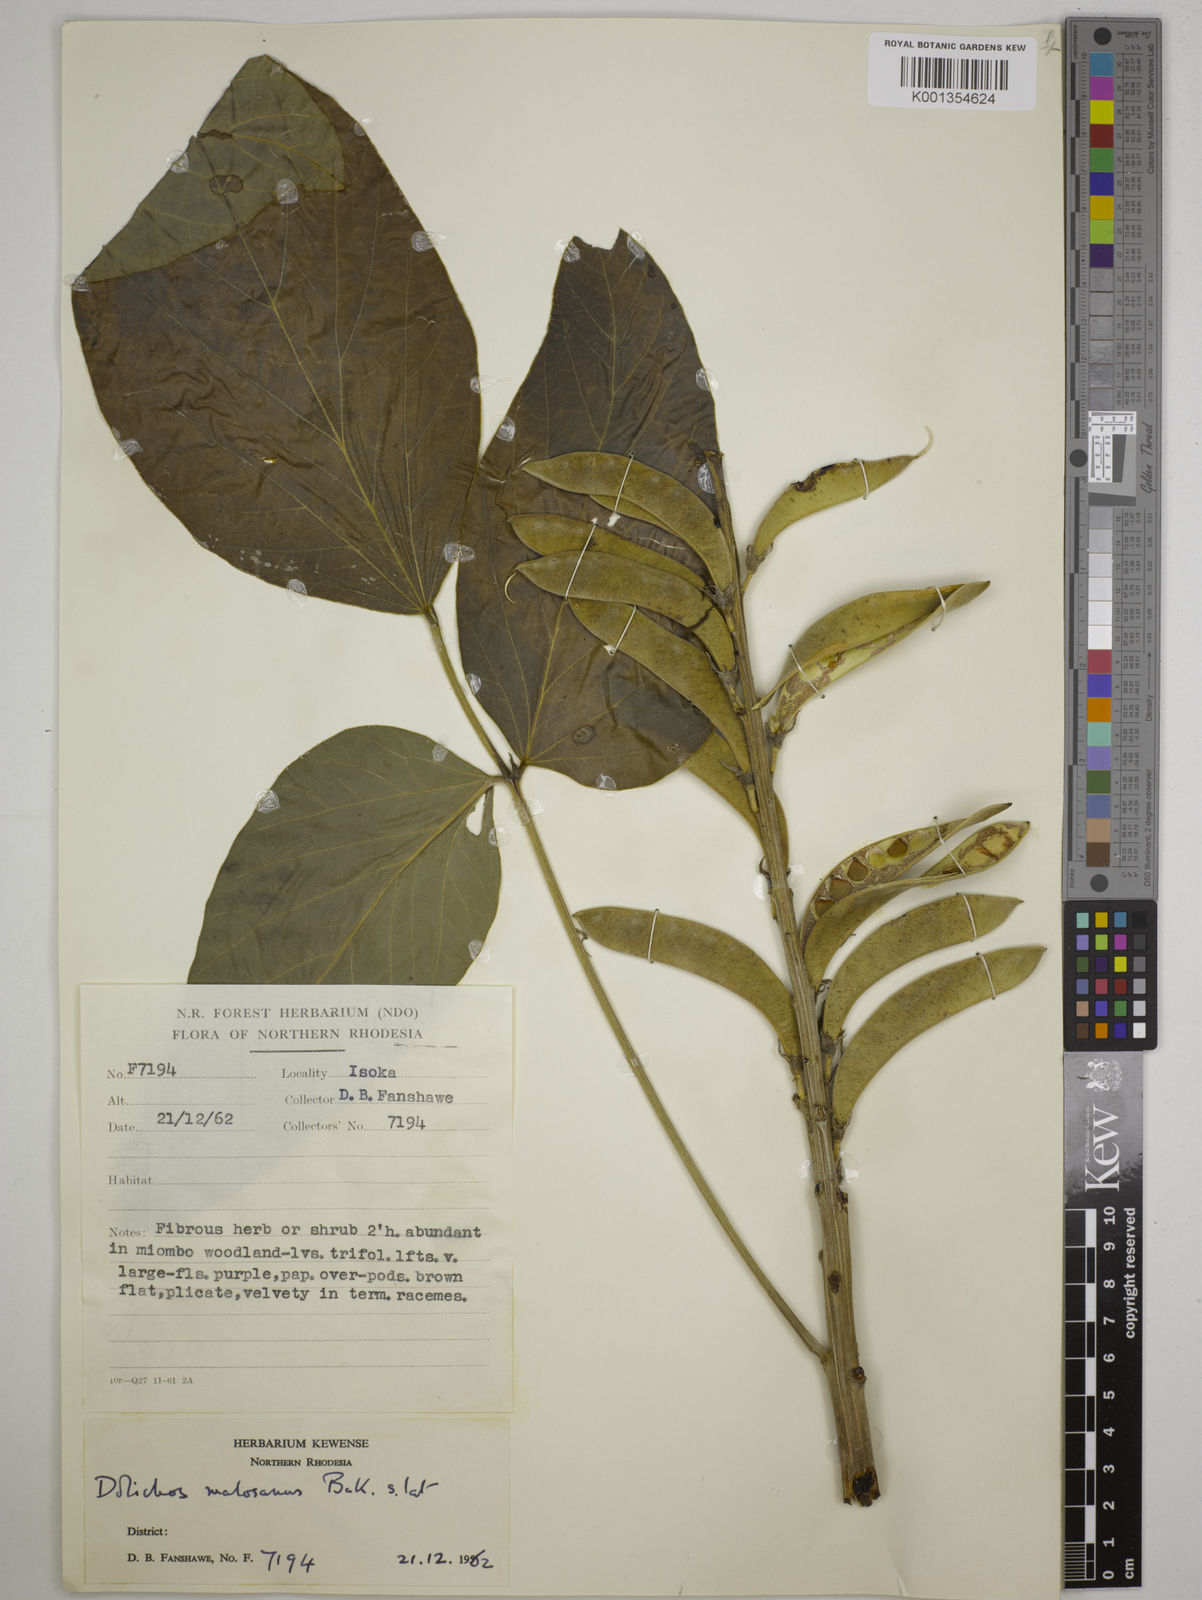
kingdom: Plantae
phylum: Tracheophyta
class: Magnoliopsida
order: Fabales
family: Fabaceae
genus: Dolichos
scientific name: Dolichos kilimandscharicus
